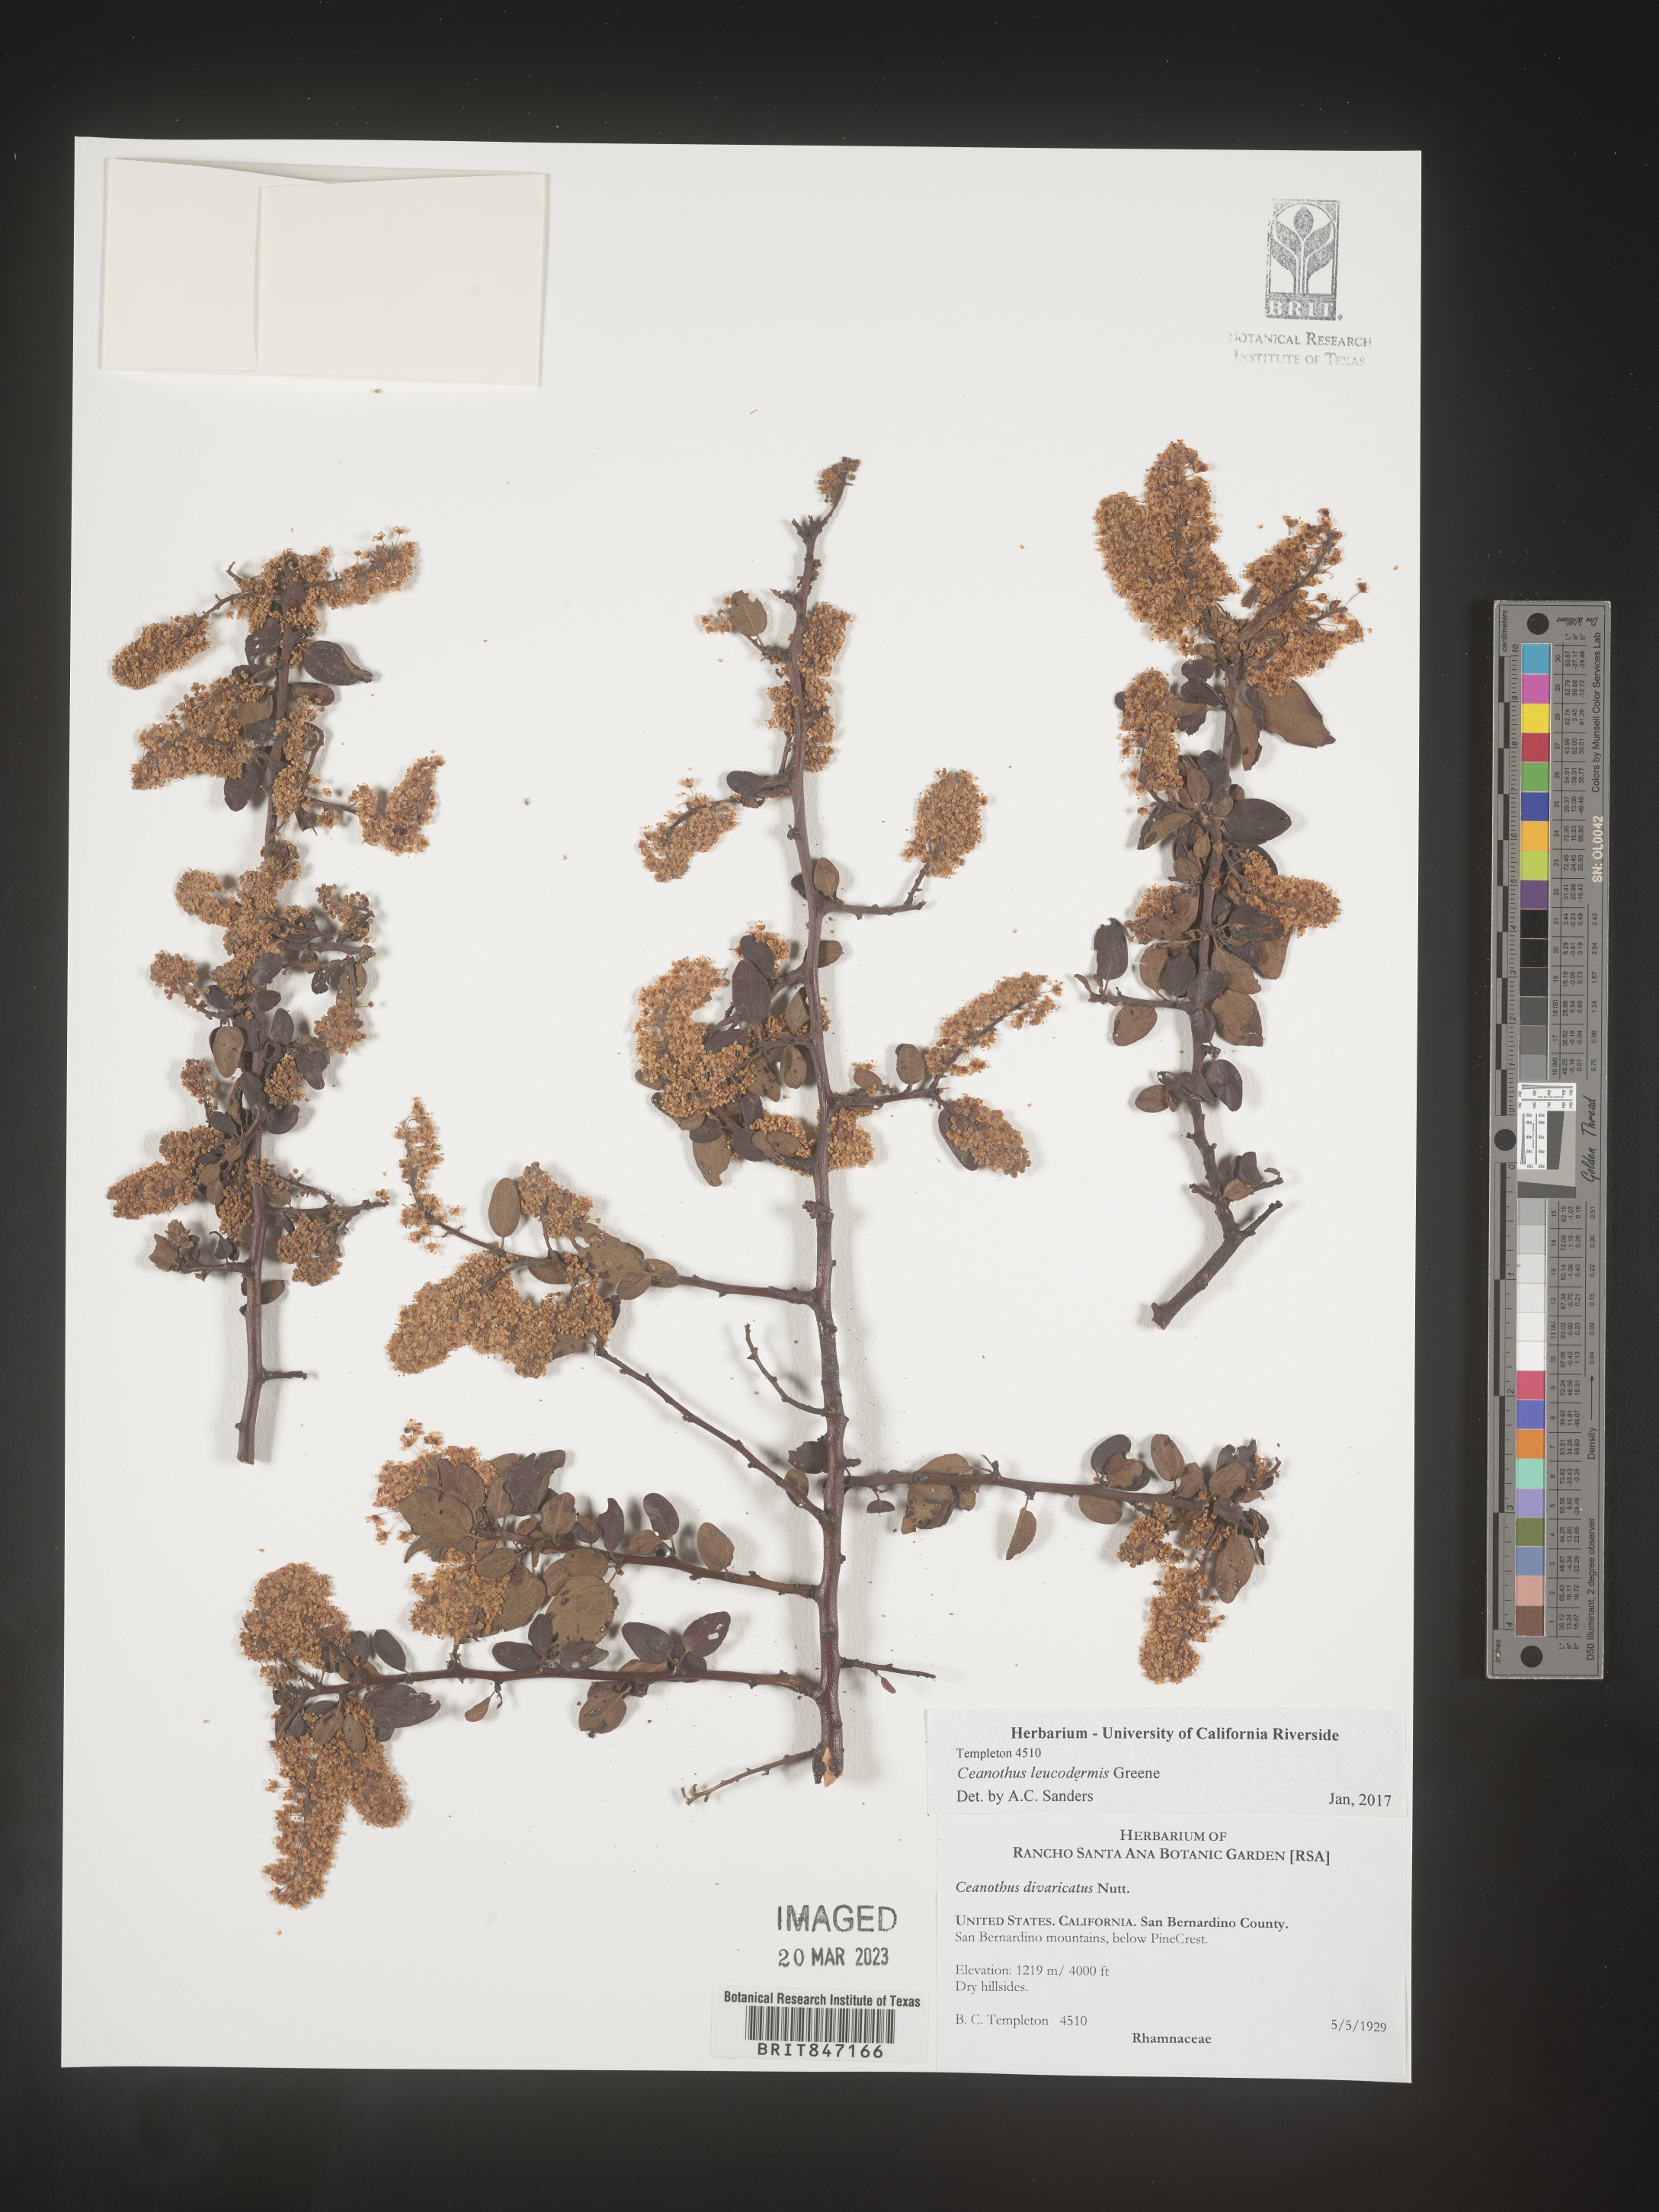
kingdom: Plantae
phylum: Tracheophyta
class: Magnoliopsida
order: Rosales
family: Rhamnaceae
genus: Ceanothus
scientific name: Ceanothus
